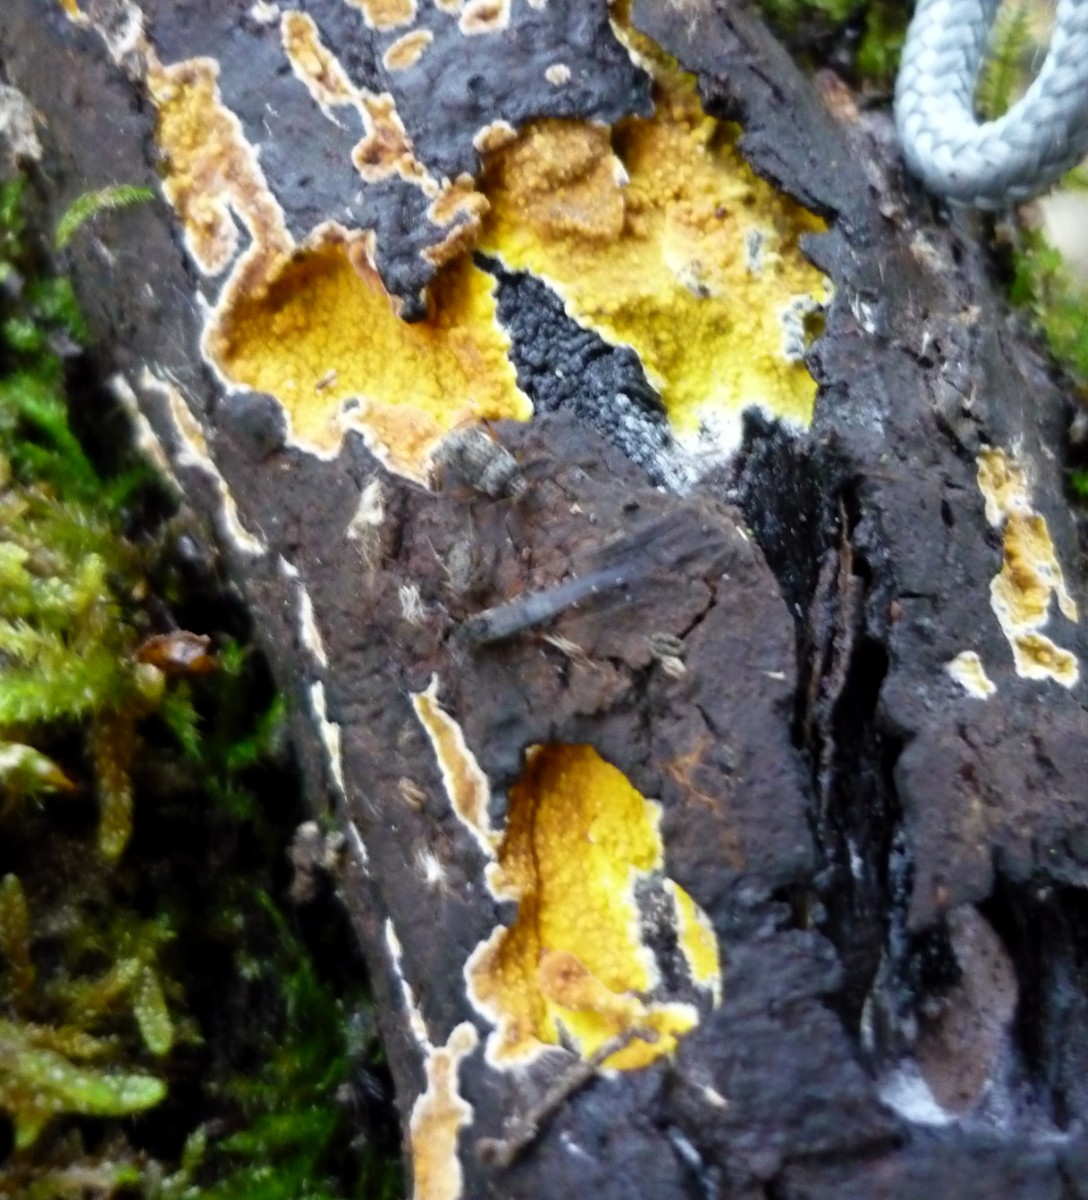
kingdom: Fungi
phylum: Basidiomycota
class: Agaricomycetes
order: Polyporales
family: Meruliaceae
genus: Phlebiodontia
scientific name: Phlebiodontia subochracea
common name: svovl-åresvamp
